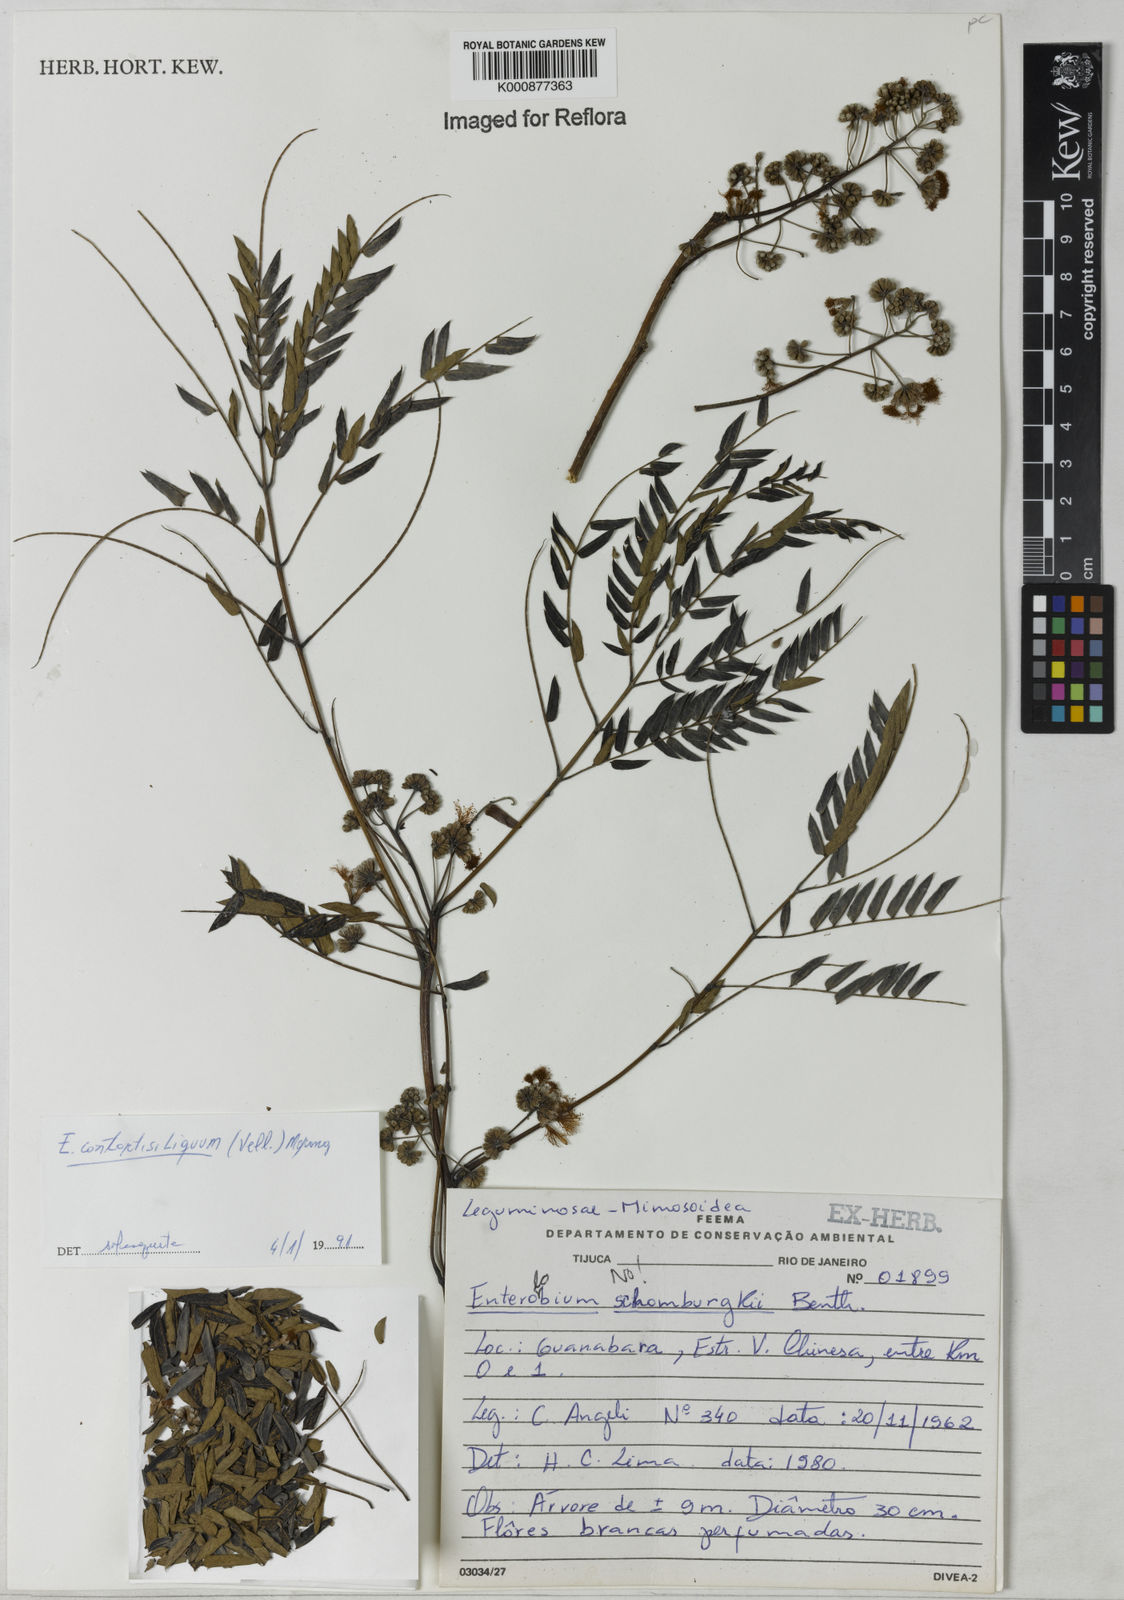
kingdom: Plantae
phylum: Tracheophyta
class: Magnoliopsida
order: Fabales
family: Fabaceae
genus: Enterolobium
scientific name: Enterolobium contortisiliquum
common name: Pacara earpod tree
